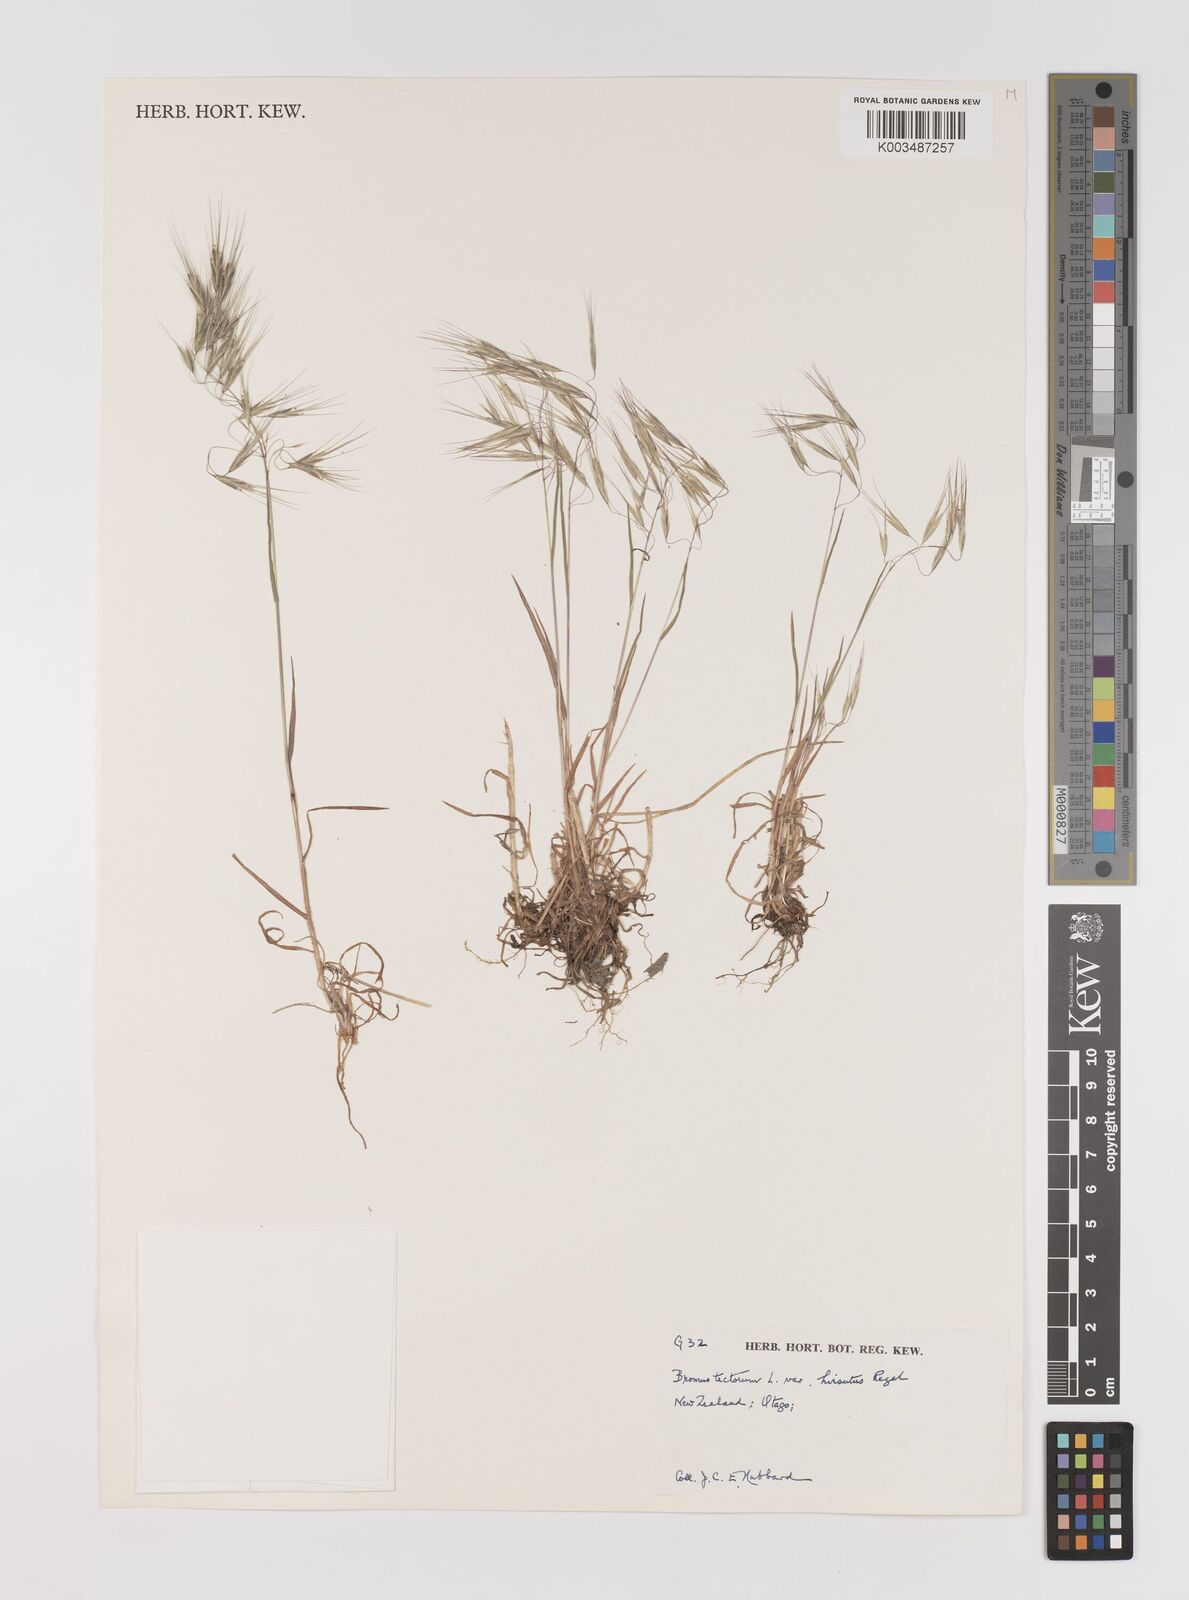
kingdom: Plantae
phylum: Tracheophyta
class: Liliopsida
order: Poales
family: Poaceae
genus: Bromus
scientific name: Bromus tectorum
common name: Cheatgrass
